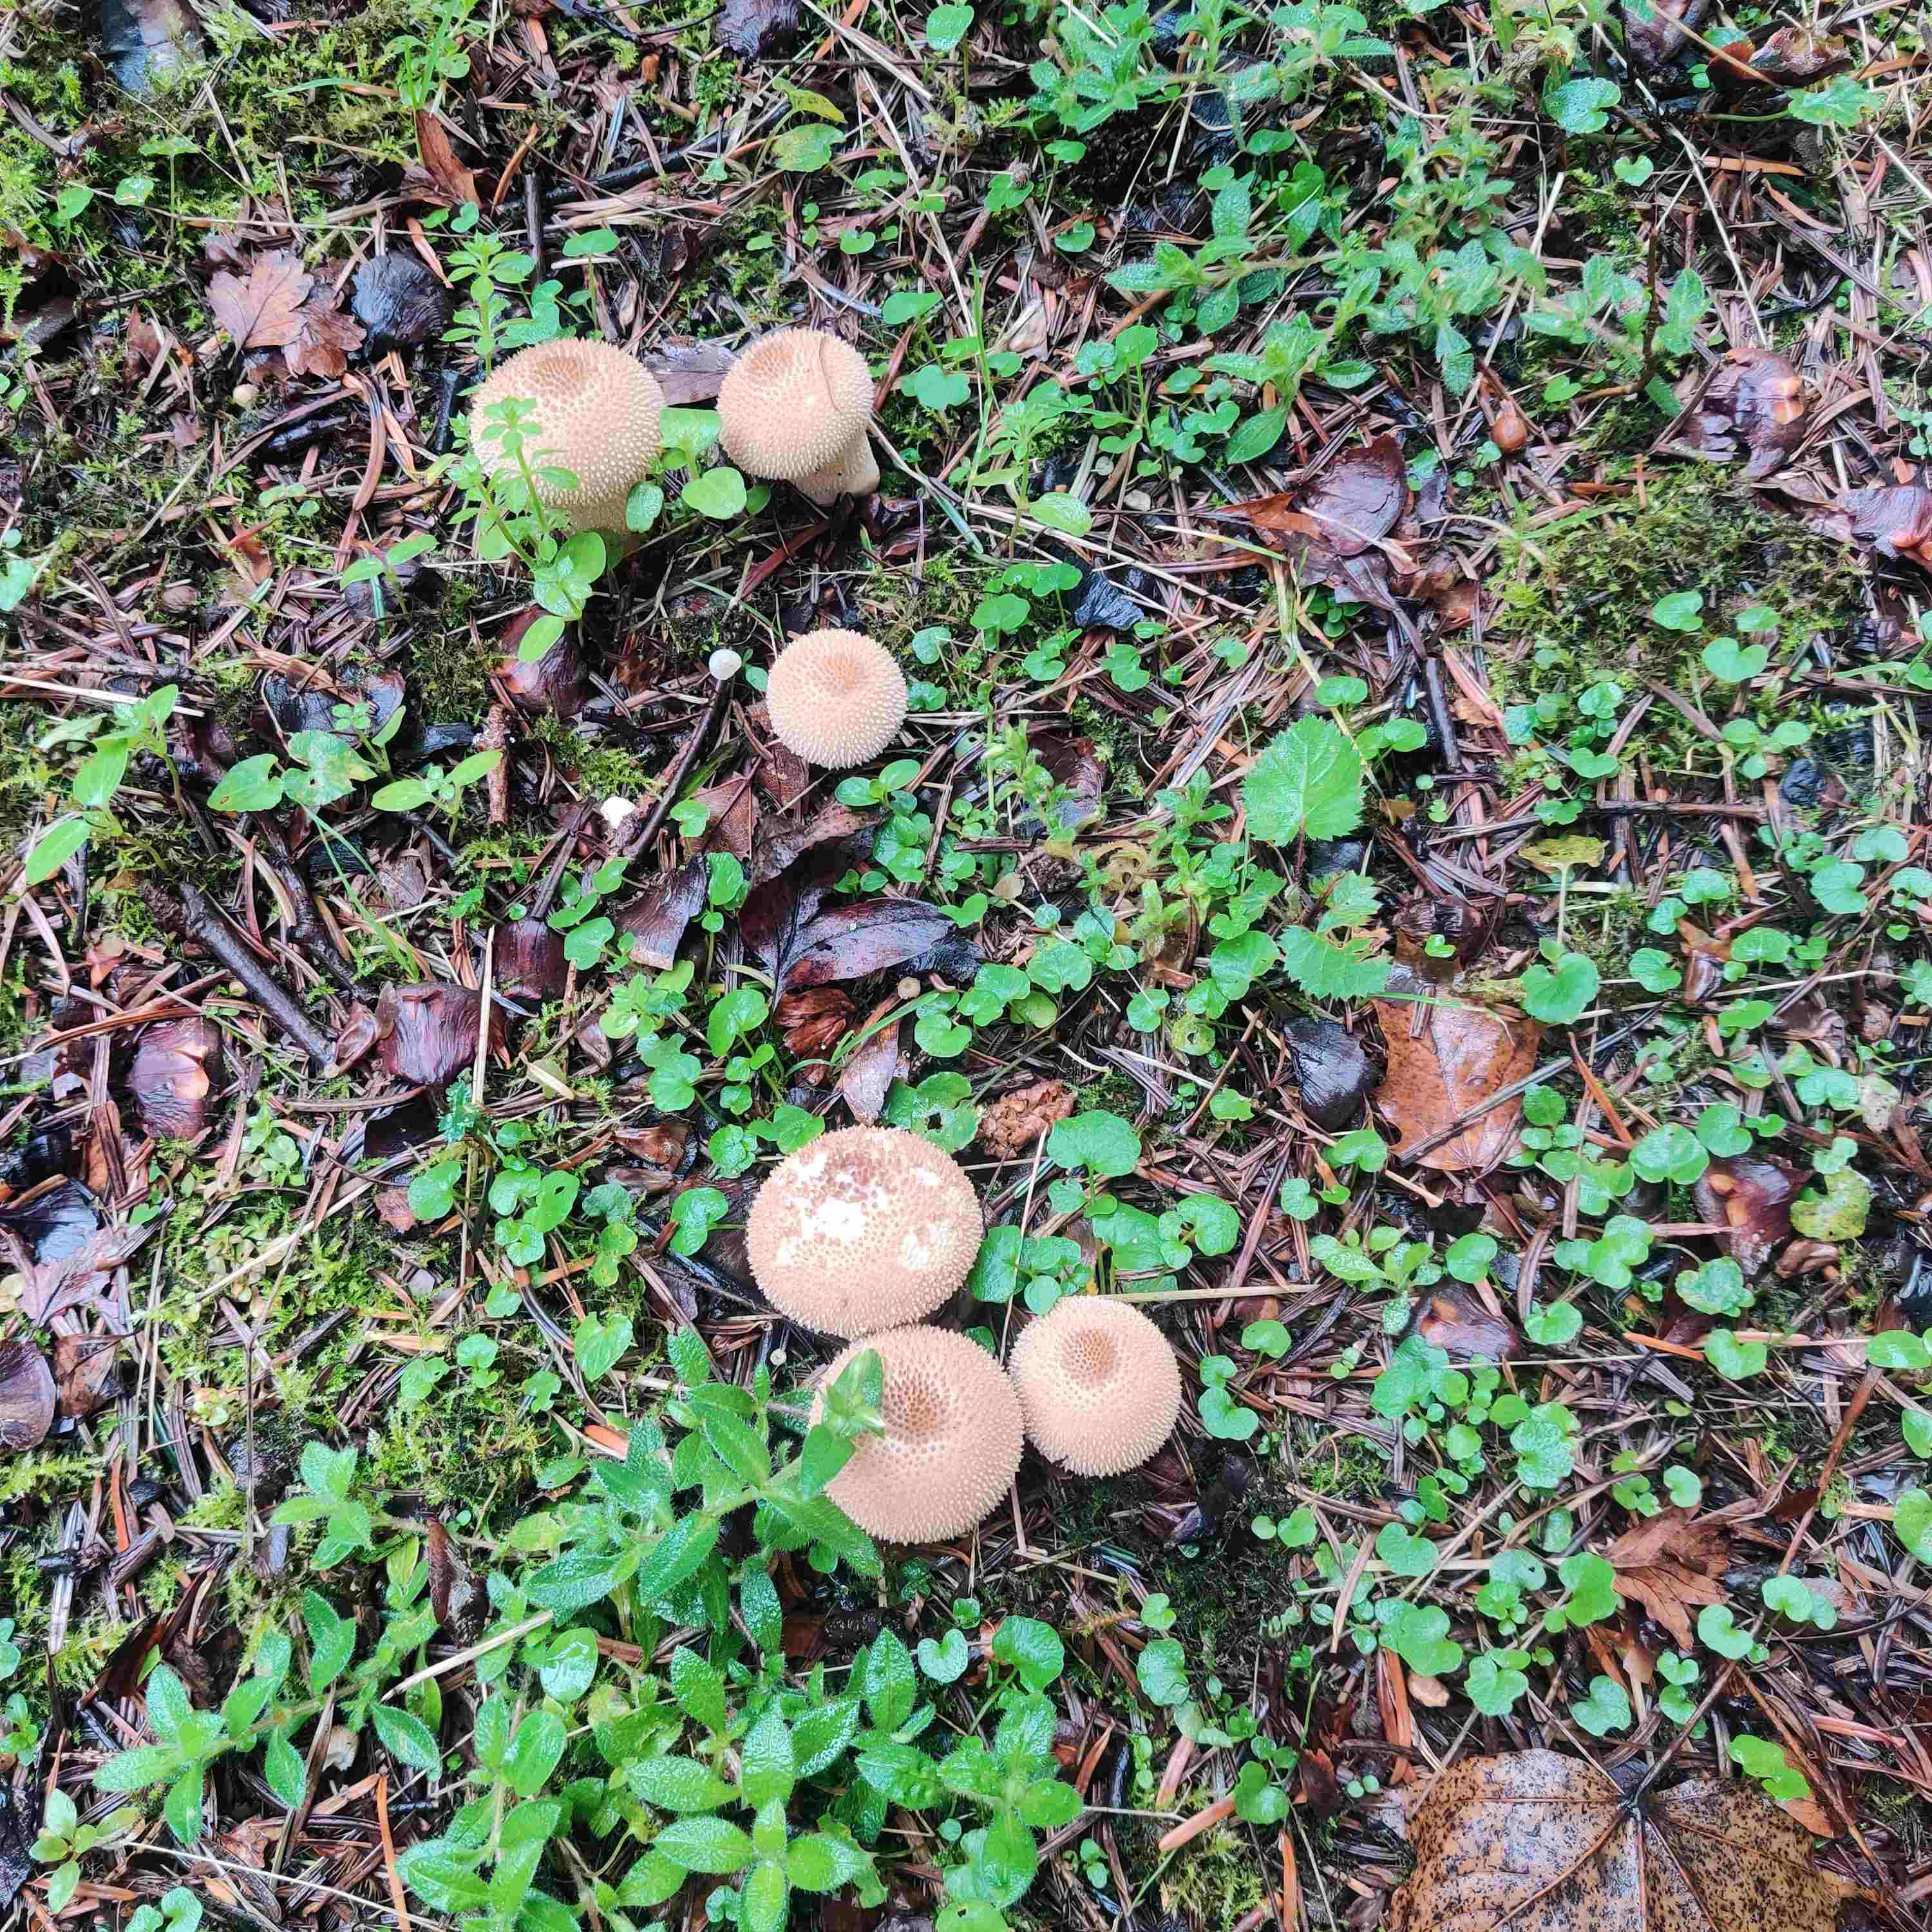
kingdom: Fungi
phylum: Basidiomycota
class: Agaricomycetes
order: Agaricales
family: Lycoperdaceae
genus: Lycoperdon
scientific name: Lycoperdon nigrescens
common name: sortagtig støvbold
